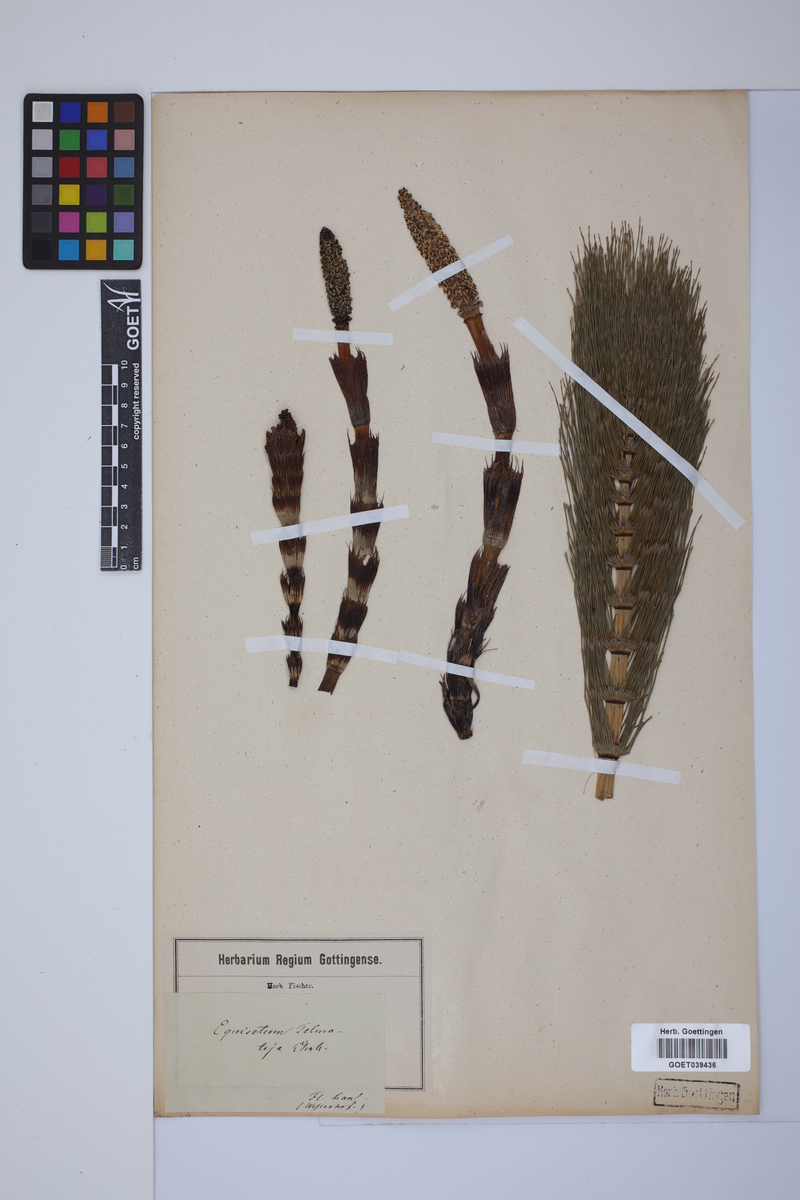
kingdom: Plantae
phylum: Tracheophyta
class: Polypodiopsida
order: Equisetales
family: Equisetaceae
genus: Equisetum
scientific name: Equisetum telmateia
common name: Great horsetail
